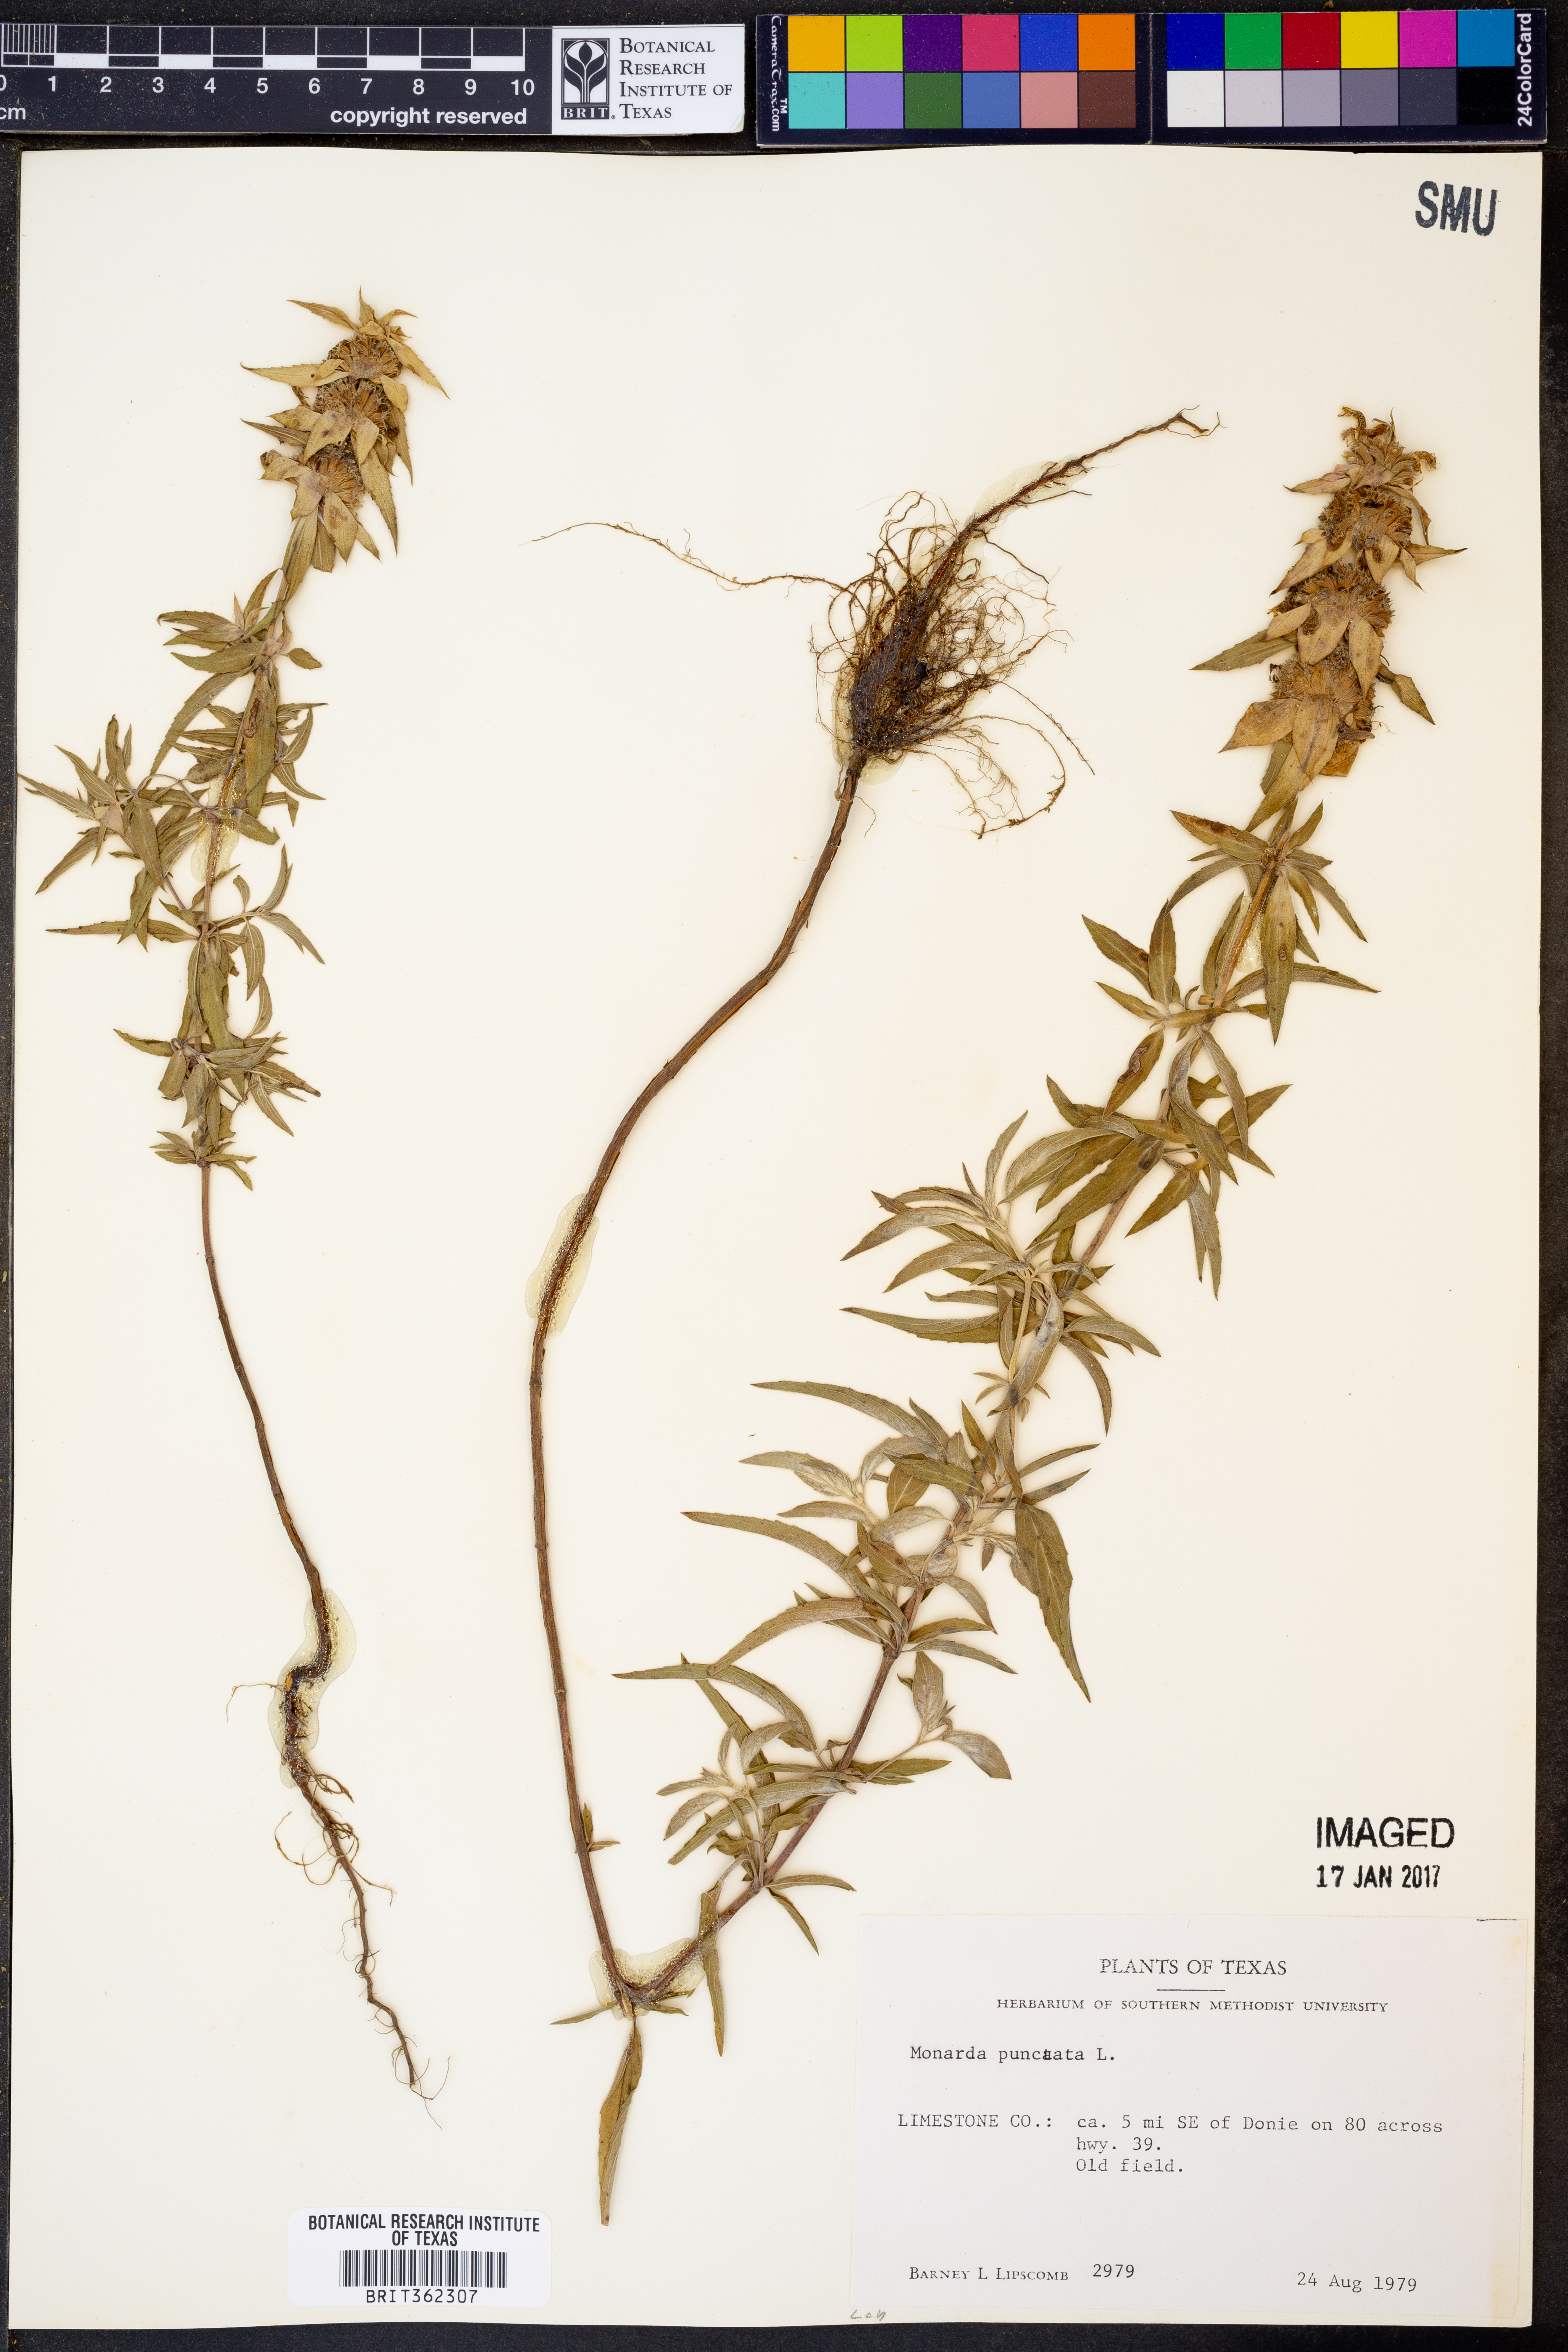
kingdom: Plantae
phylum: Tracheophyta
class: Magnoliopsida
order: Lamiales
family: Lamiaceae
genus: Monarda
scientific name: Monarda punctata
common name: Dotted monarda
